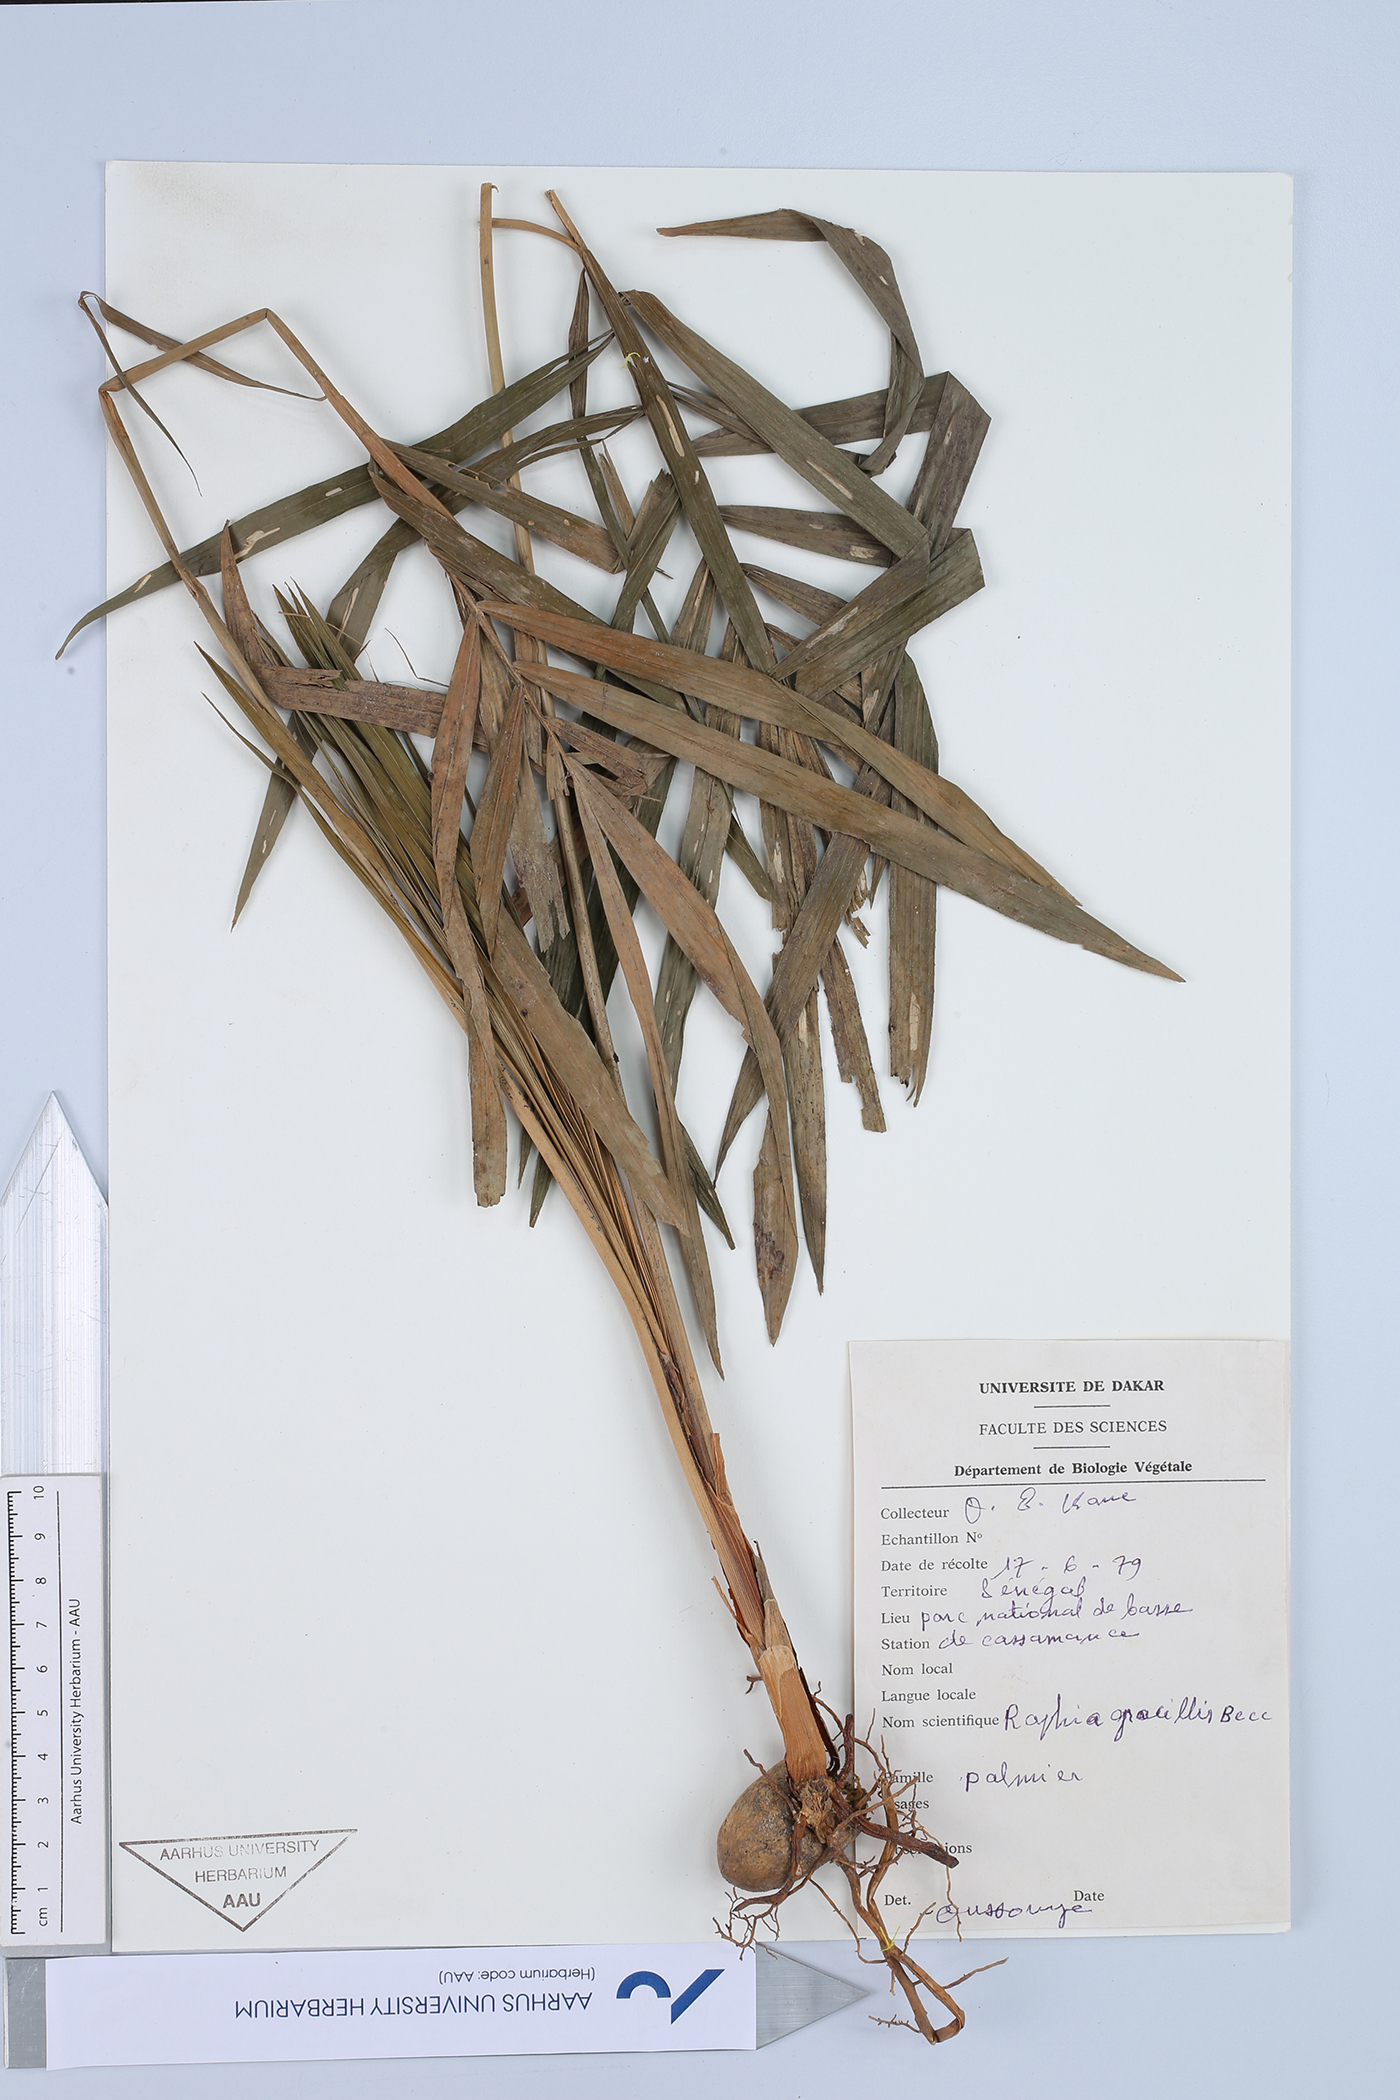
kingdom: Plantae
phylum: Tracheophyta
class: Liliopsida
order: Arecales
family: Arecaceae
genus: Raphia
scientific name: Raphia palma-pinus
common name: Raphia palm
